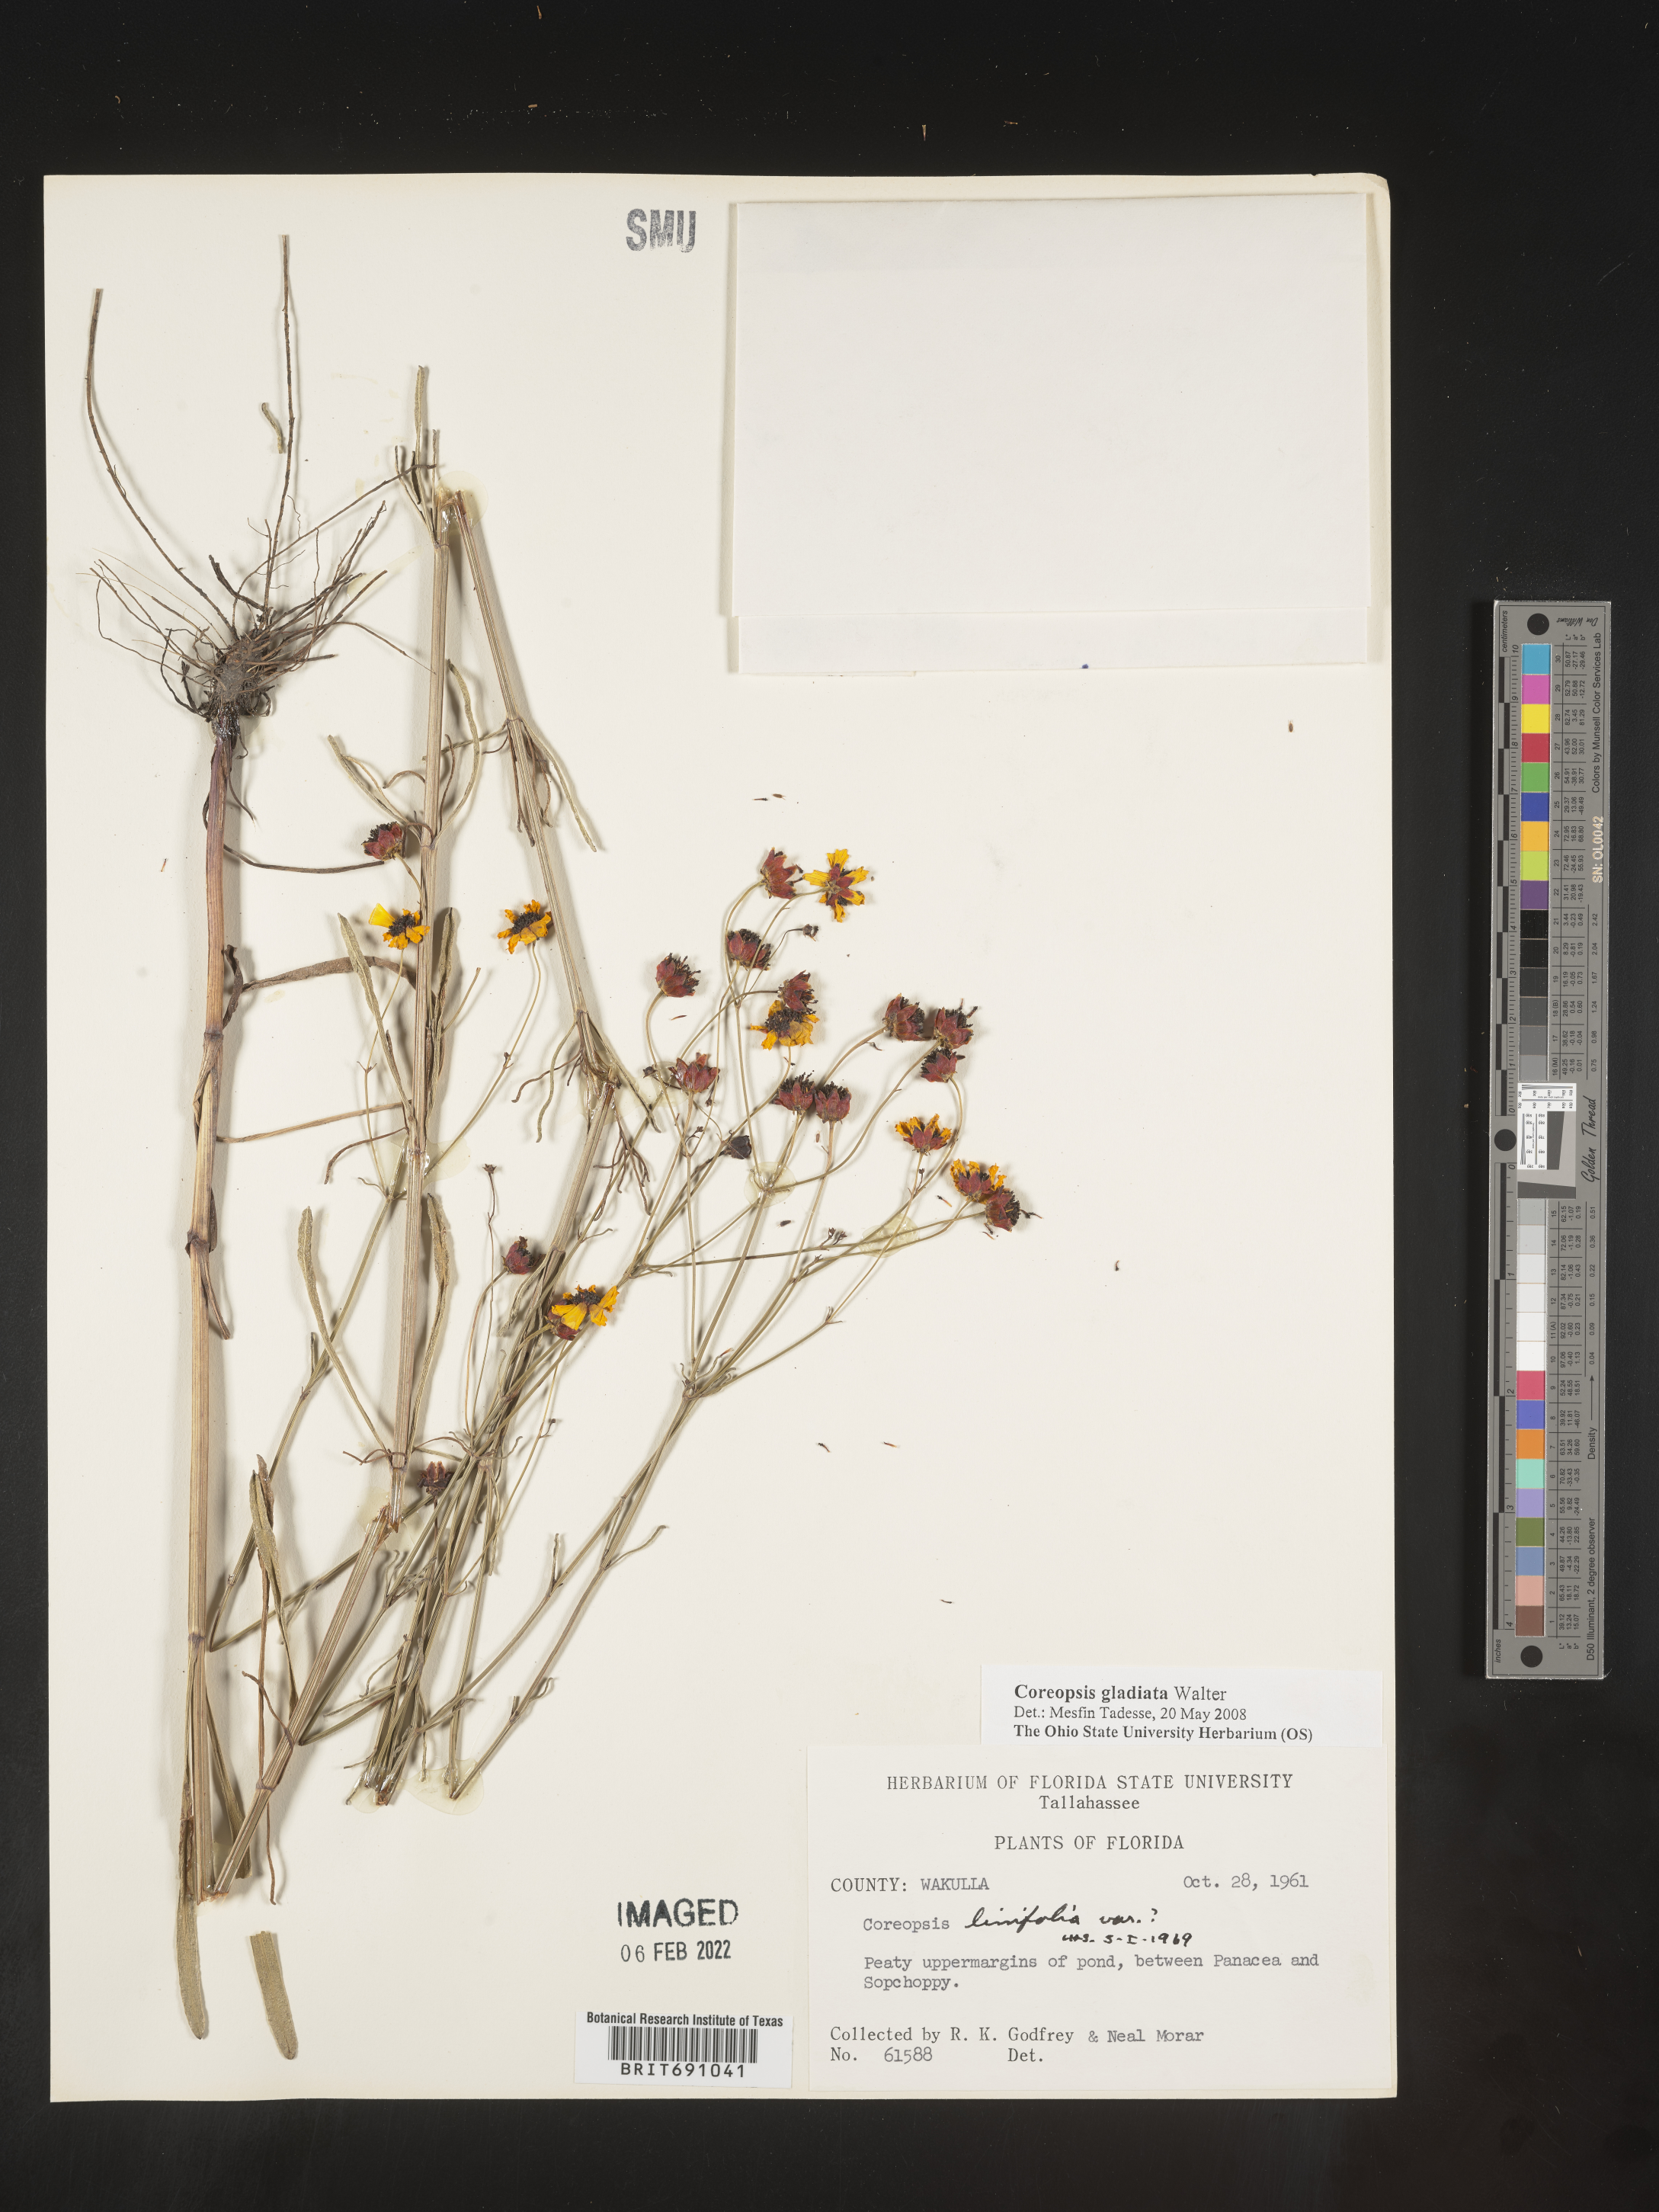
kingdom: Plantae
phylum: Tracheophyta
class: Magnoliopsida
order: Asterales
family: Asteraceae
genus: Coreopsis
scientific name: Coreopsis gladiata
